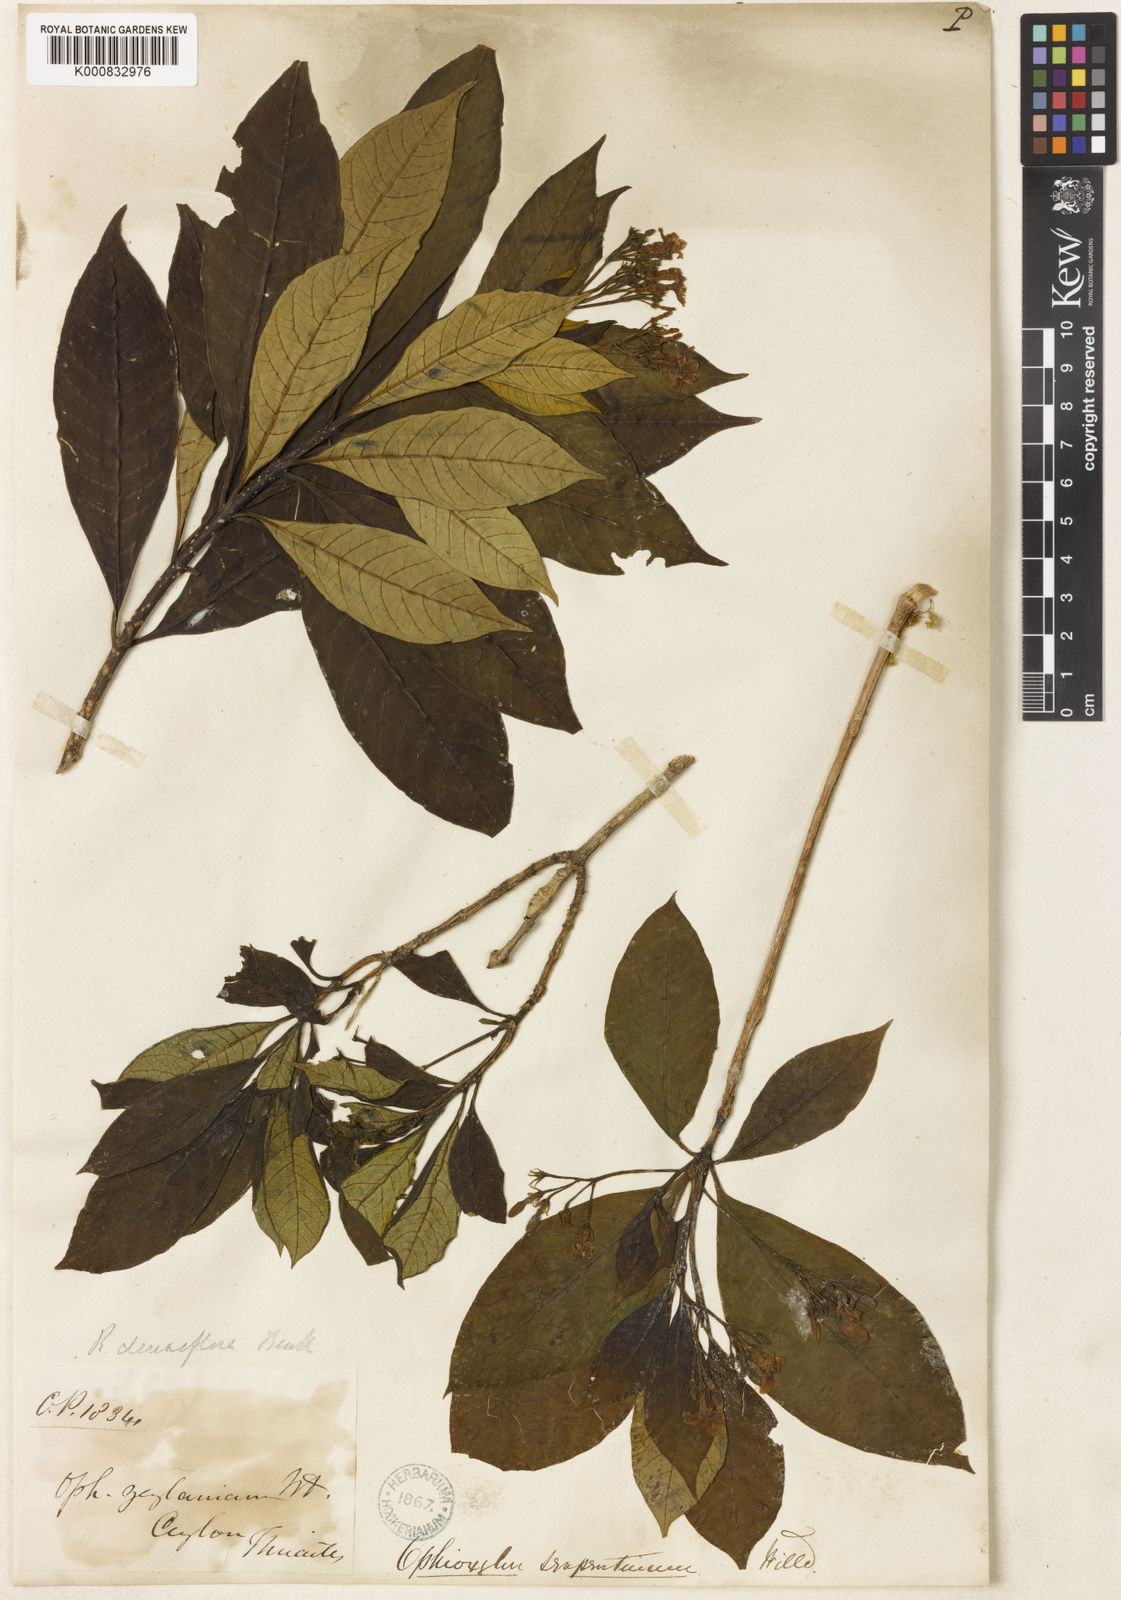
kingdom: Plantae
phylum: Tracheophyta
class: Magnoliopsida
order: Gentianales
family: Apocynaceae
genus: Rauvolfia
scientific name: Rauvolfia verticillata
